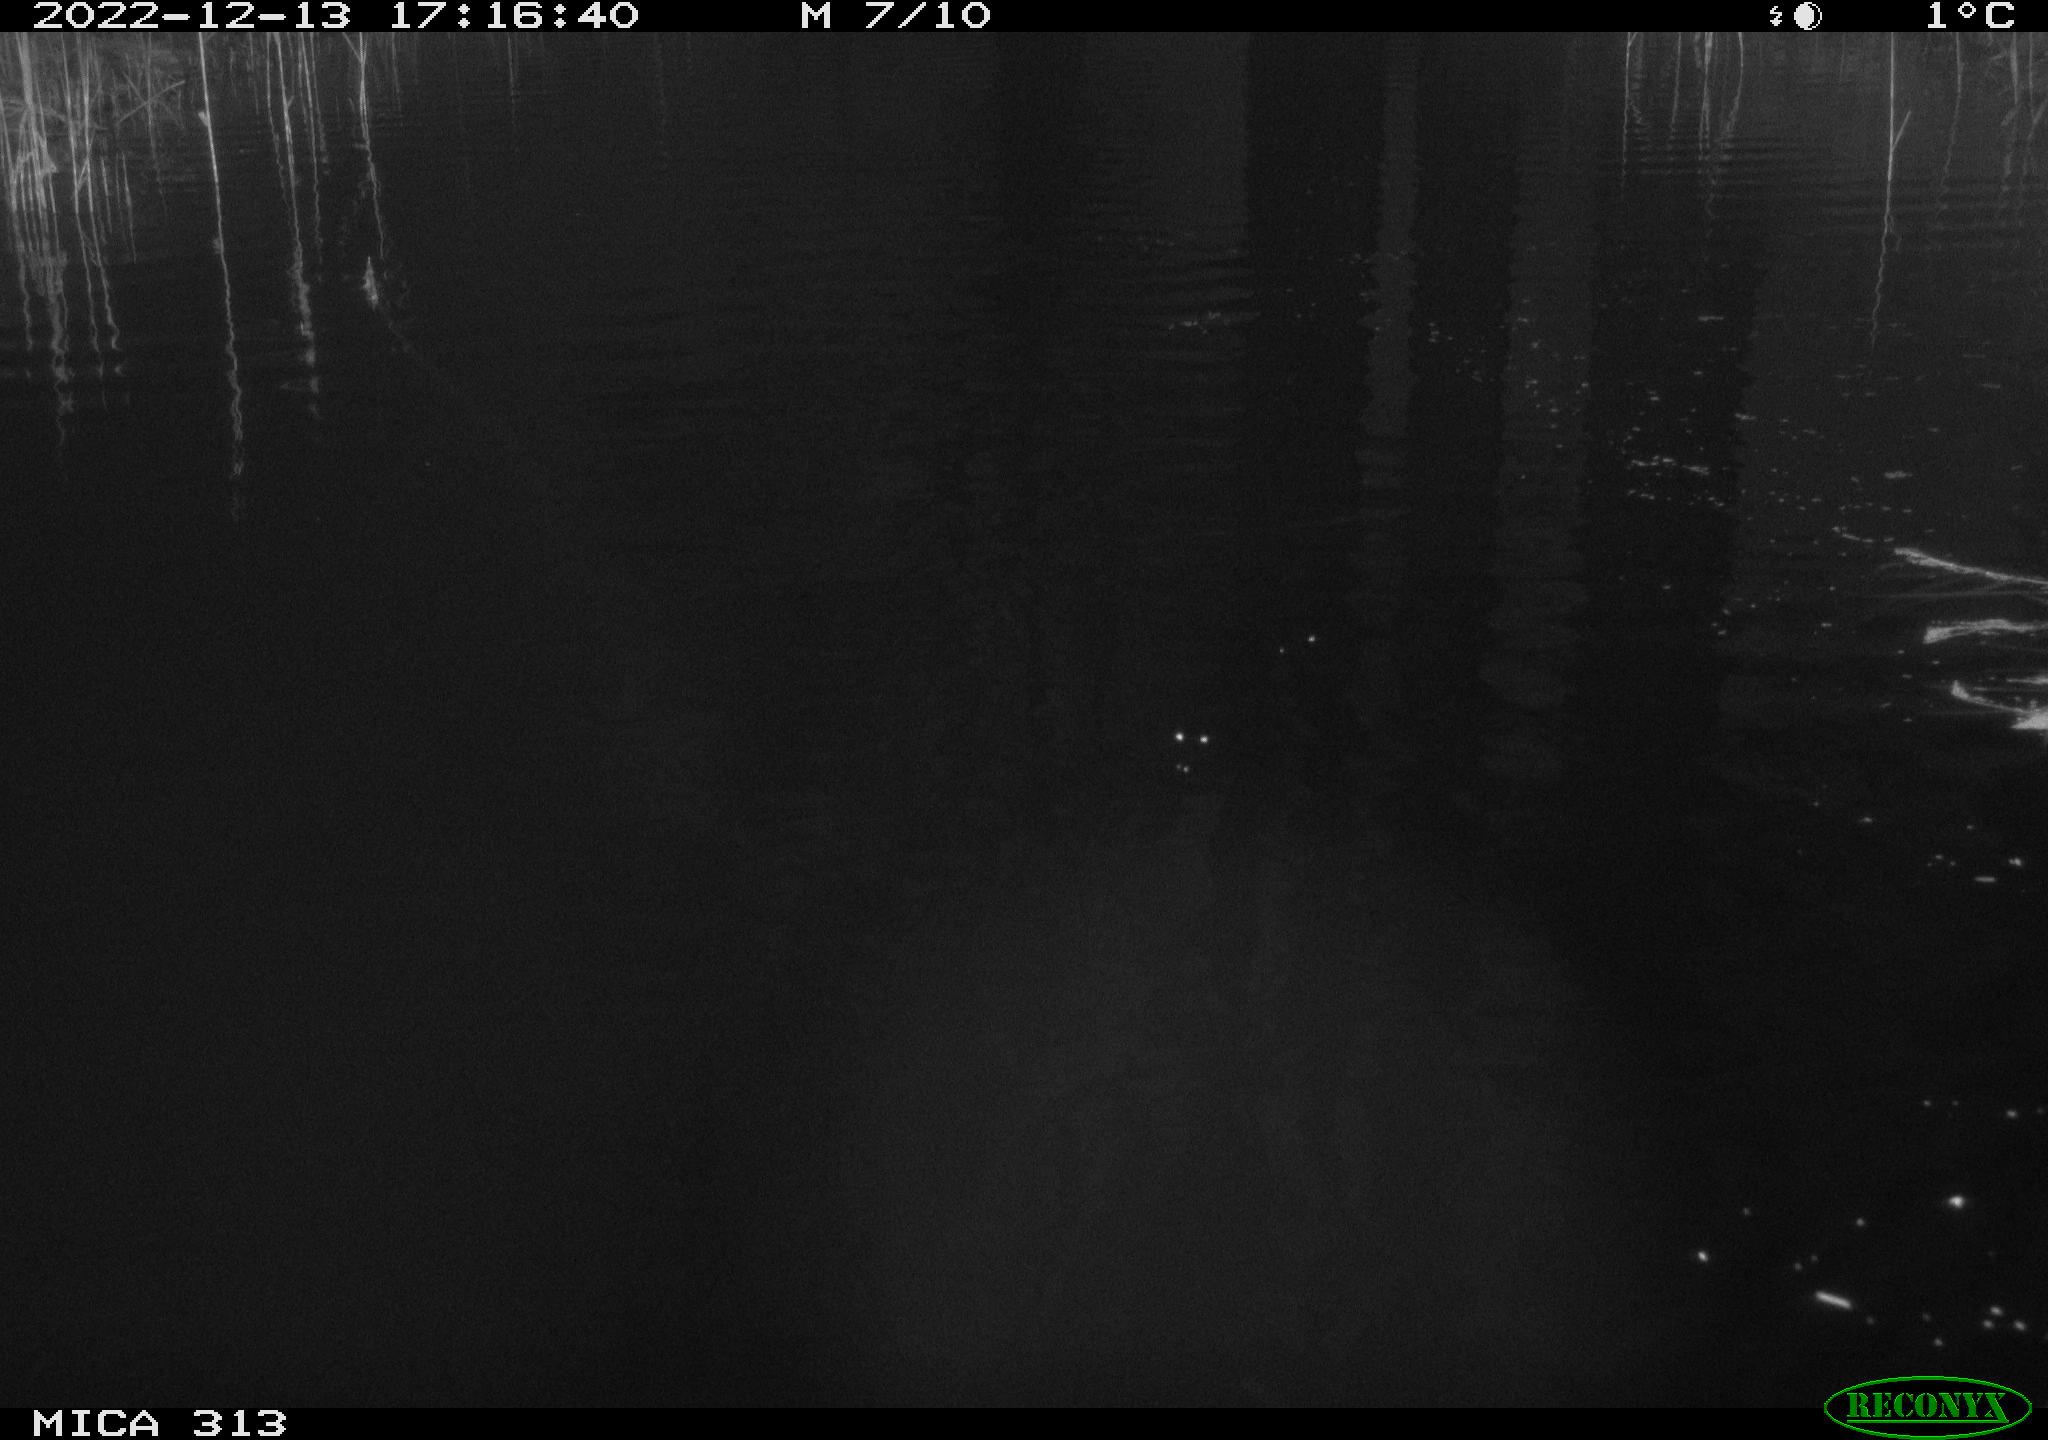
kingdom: Animalia
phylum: Chordata
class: Aves
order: Anseriformes
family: Anatidae
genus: Anas
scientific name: Anas
